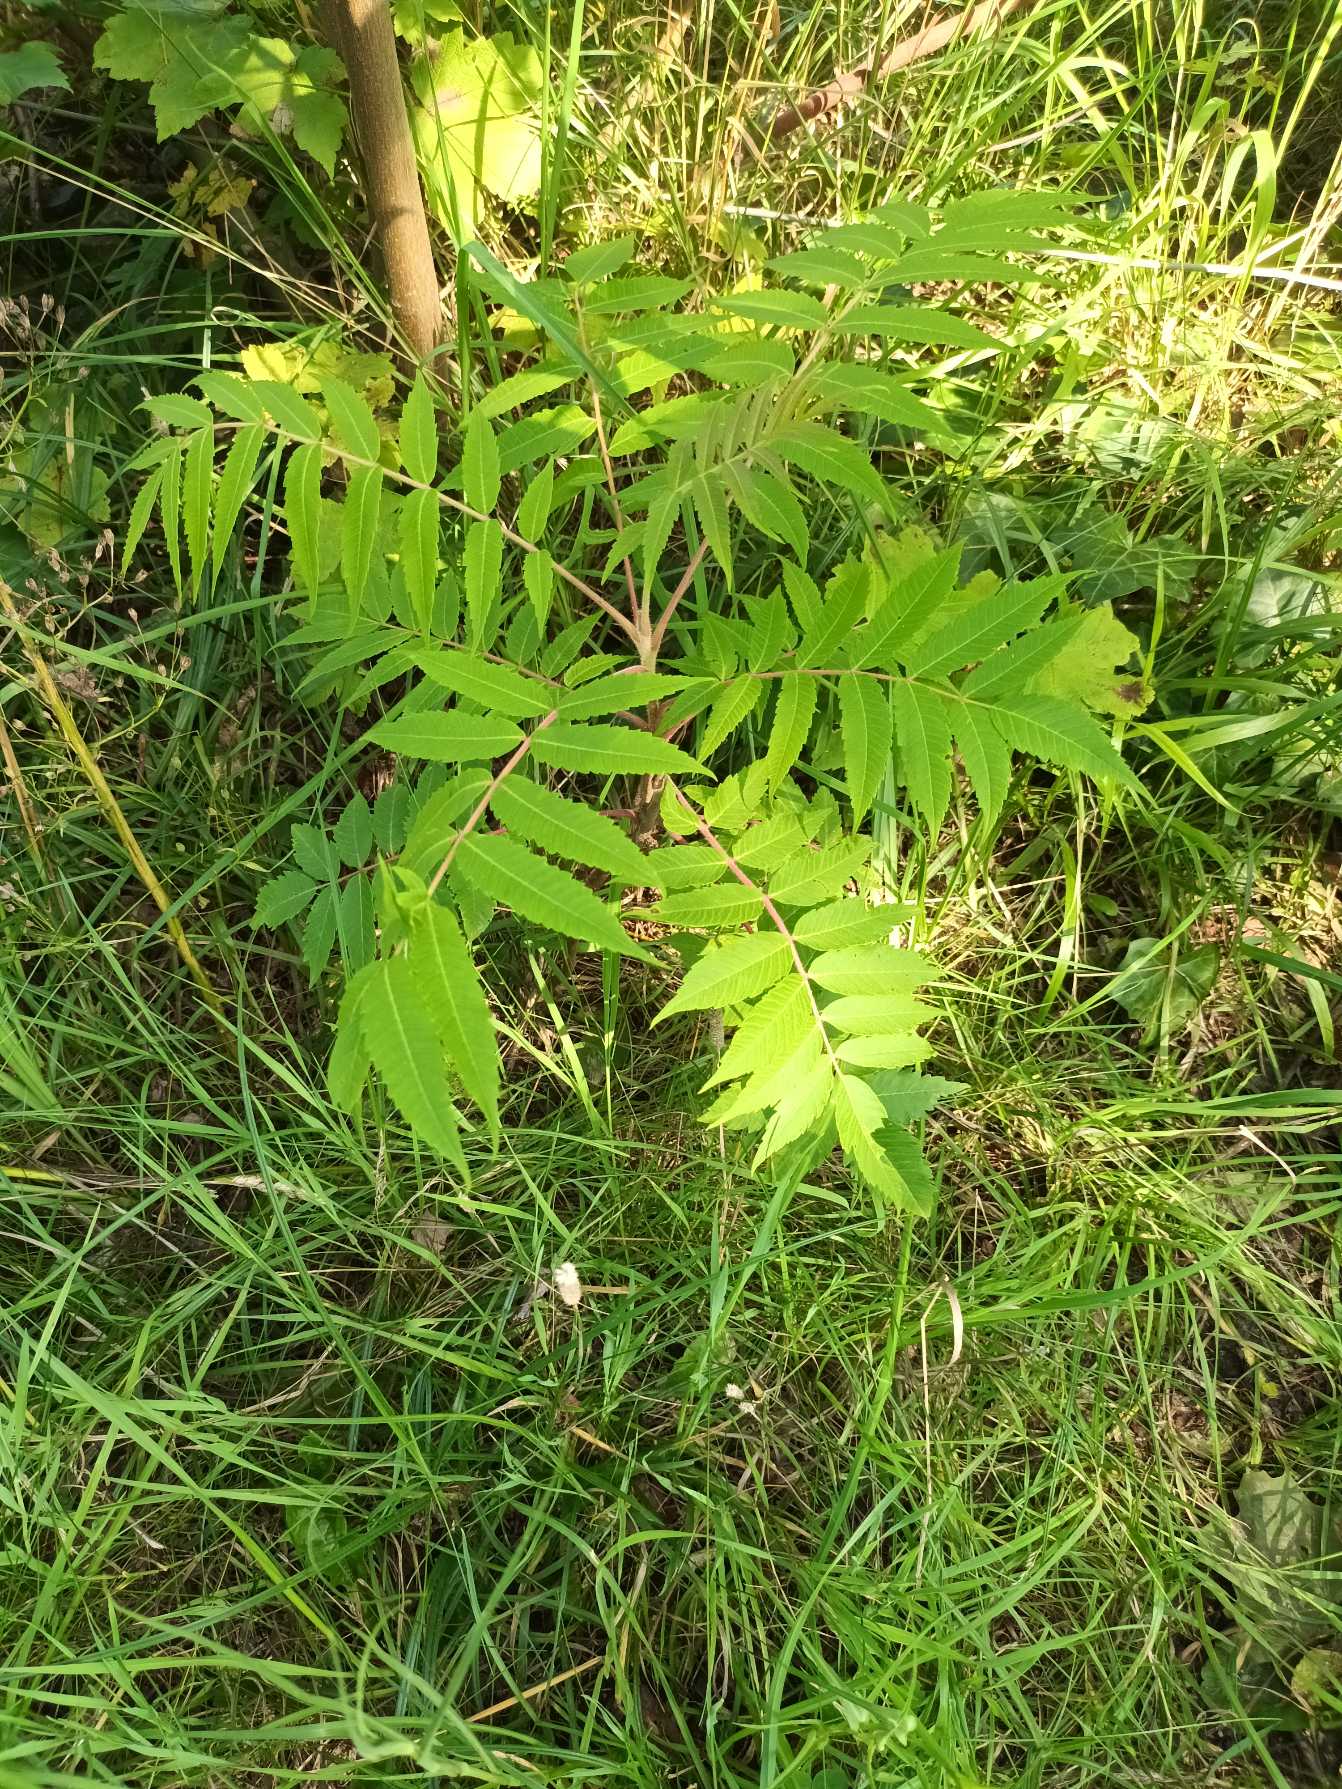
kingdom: Plantae
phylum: Tracheophyta
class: Magnoliopsida
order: Sapindales
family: Anacardiaceae
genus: Rhus
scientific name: Rhus typhina
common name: Hjortetaktræ
